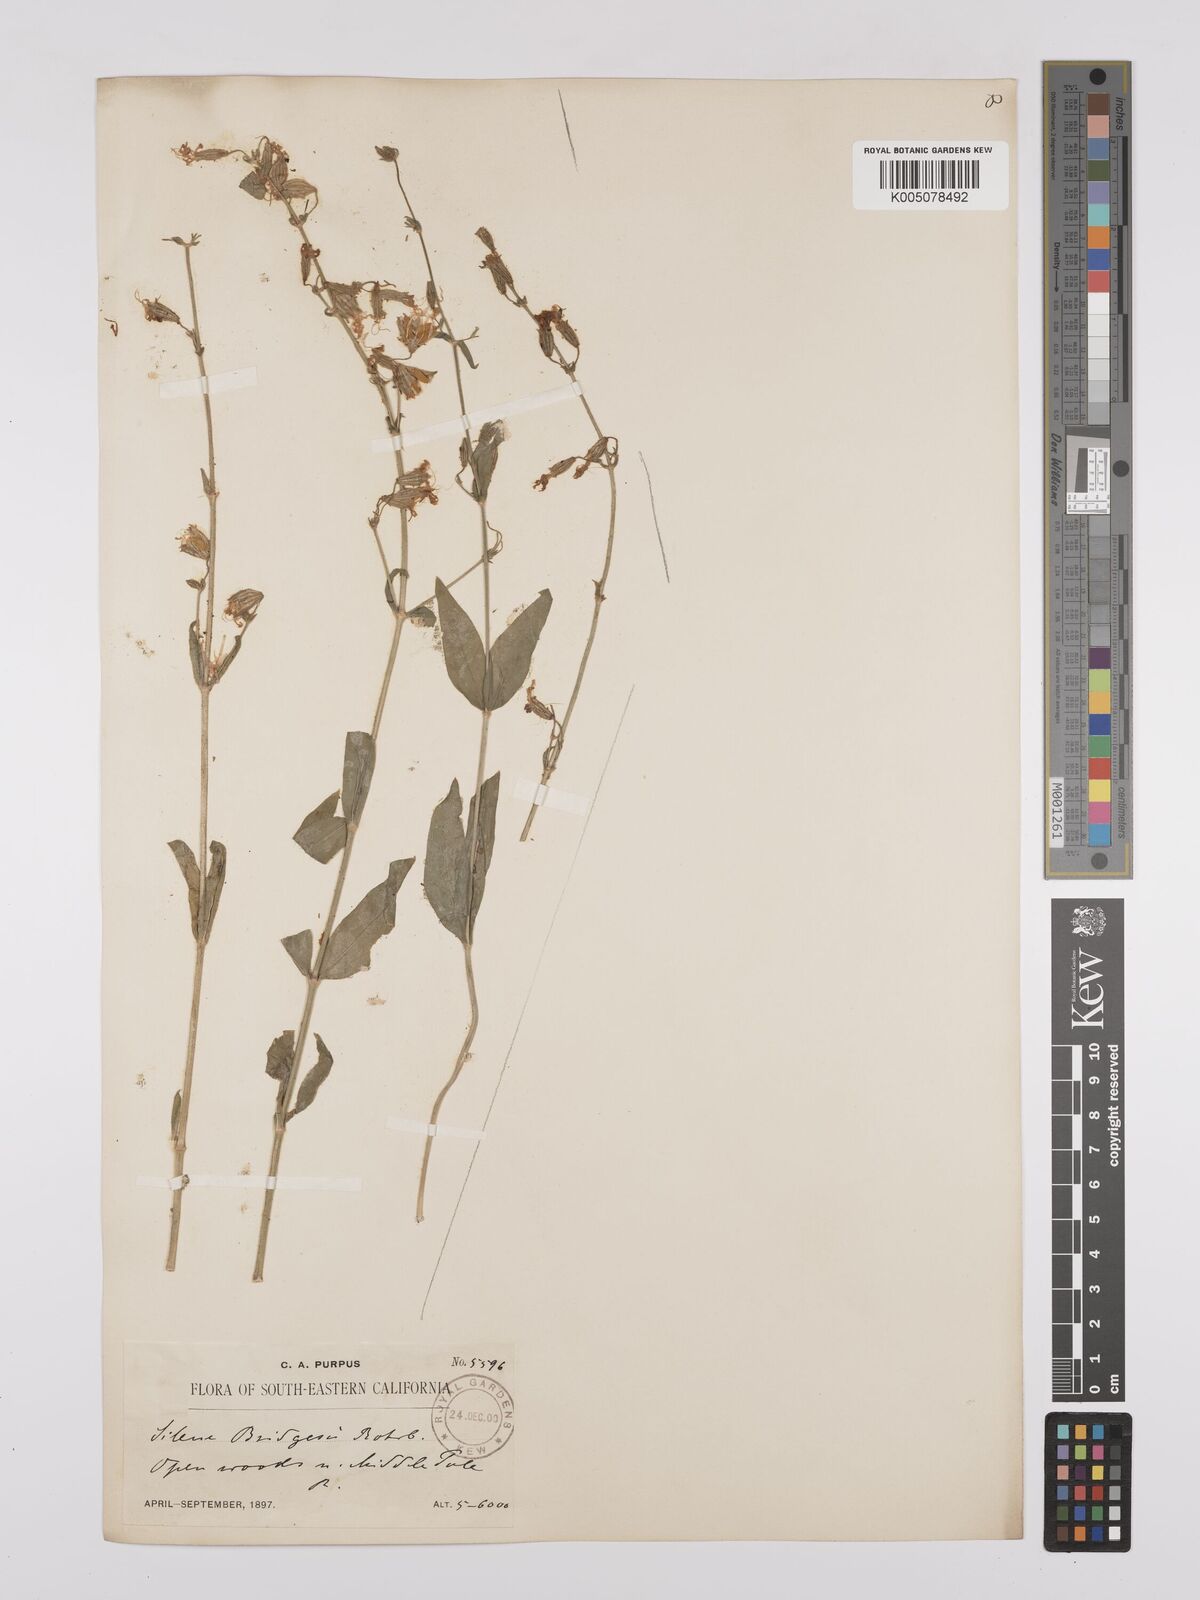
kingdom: Plantae
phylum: Tracheophyta
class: Magnoliopsida
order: Caryophyllales
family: Caryophyllaceae
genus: Silene
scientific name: Silene bridgesii
